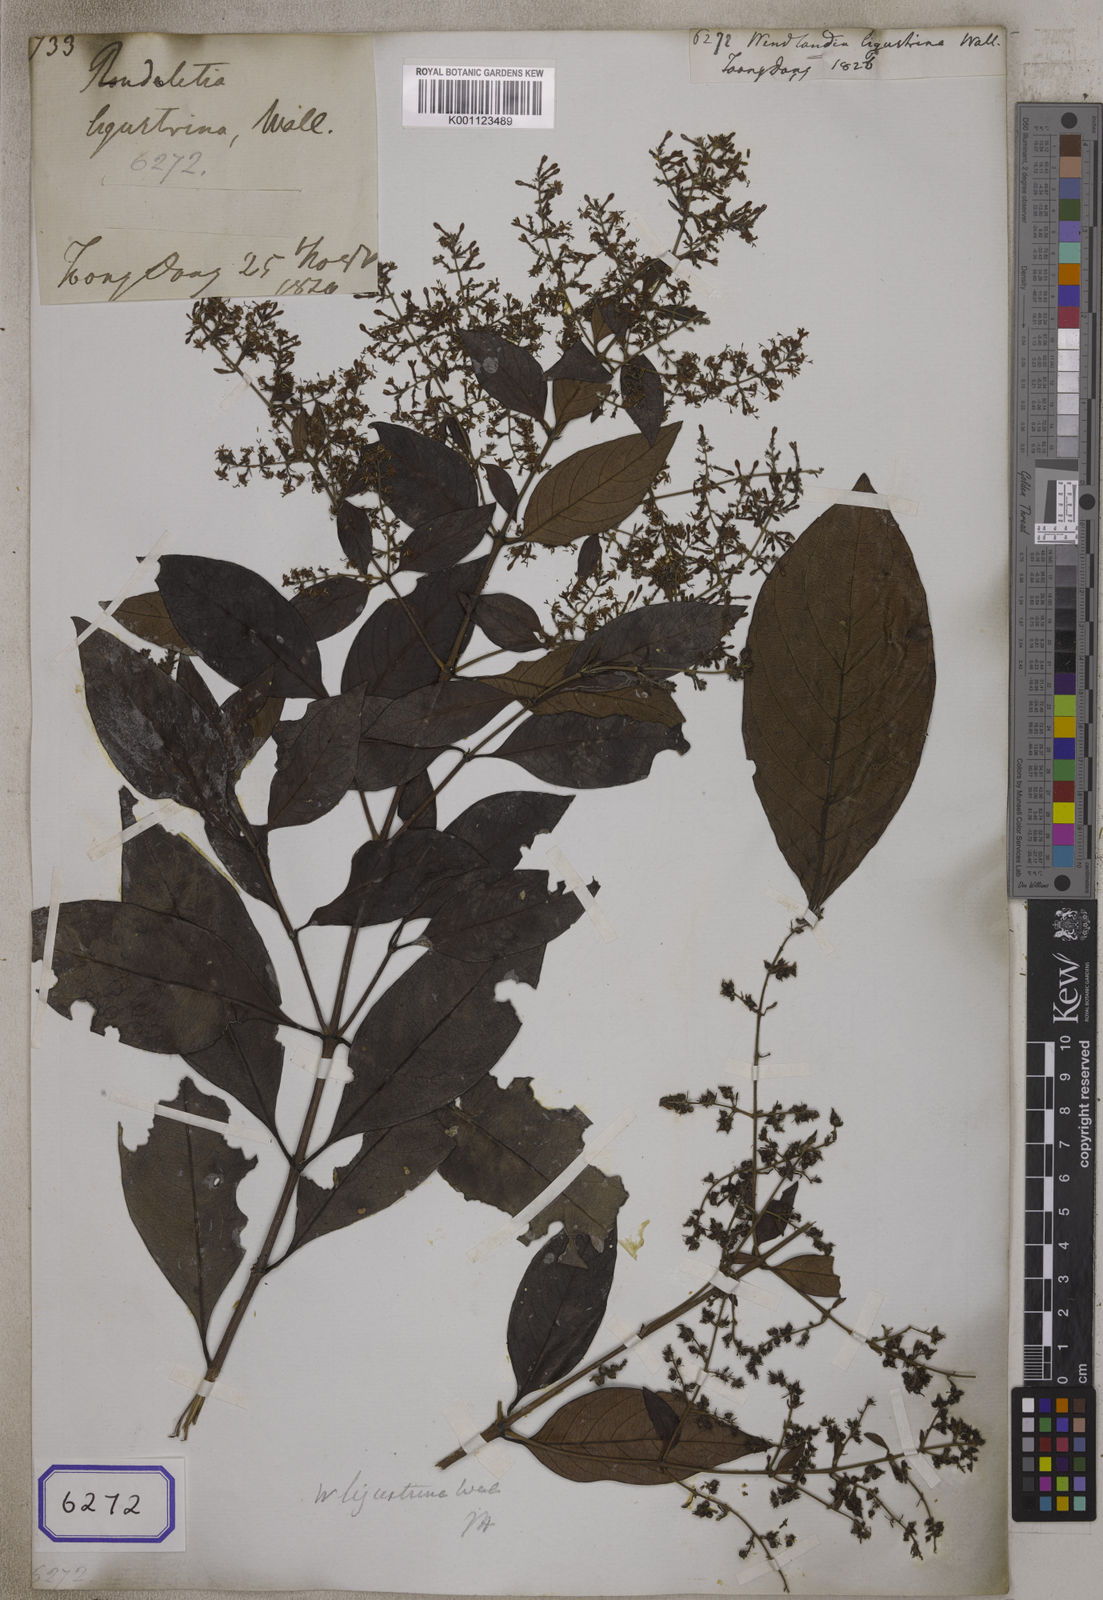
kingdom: Plantae
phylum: Tracheophyta
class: Magnoliopsida
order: Gentianales
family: Rubiaceae
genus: Wendlandia
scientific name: Wendlandia
